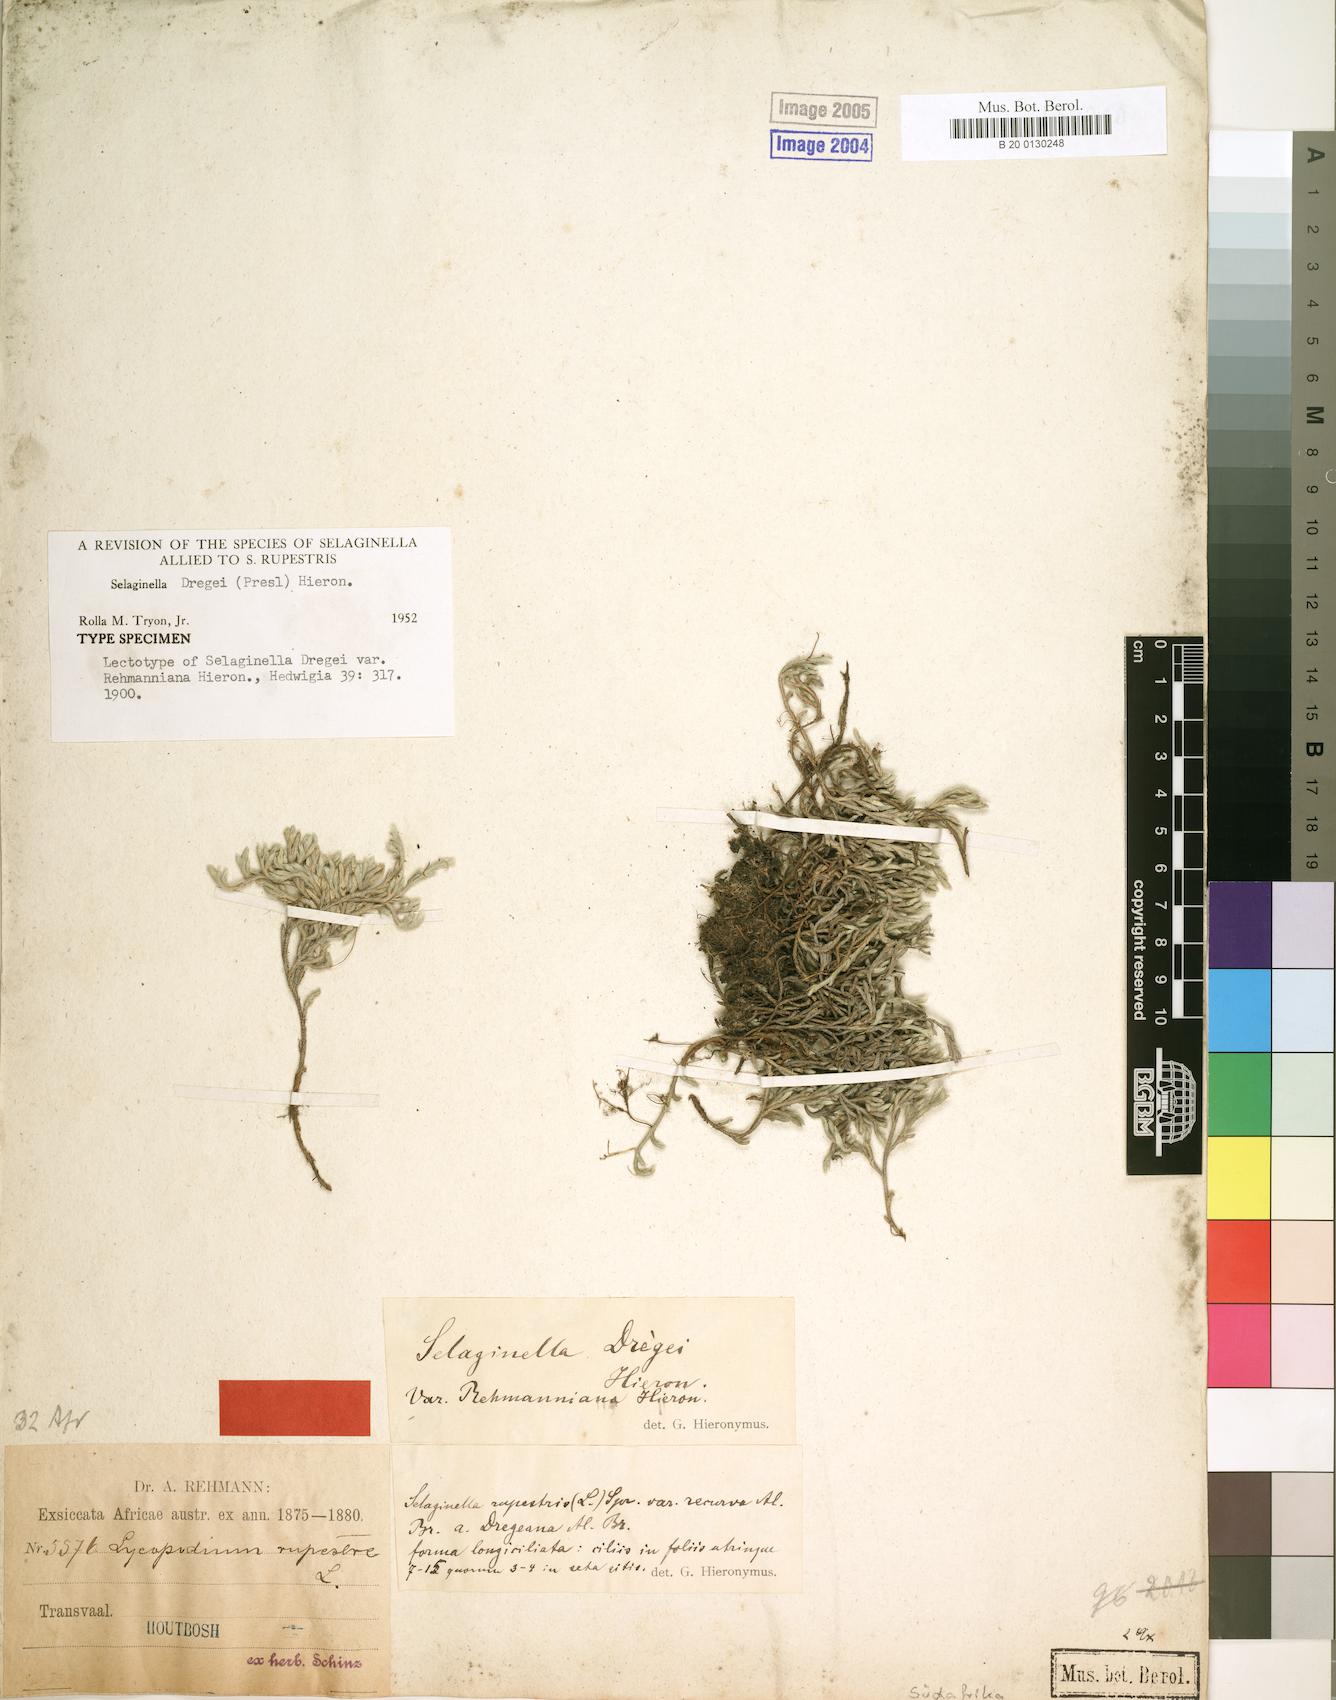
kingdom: Plantae
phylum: Tracheophyta
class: Lycopodiopsida
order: Selaginellales
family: Selaginellaceae
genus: Selaginella
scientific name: Selaginella dregei
